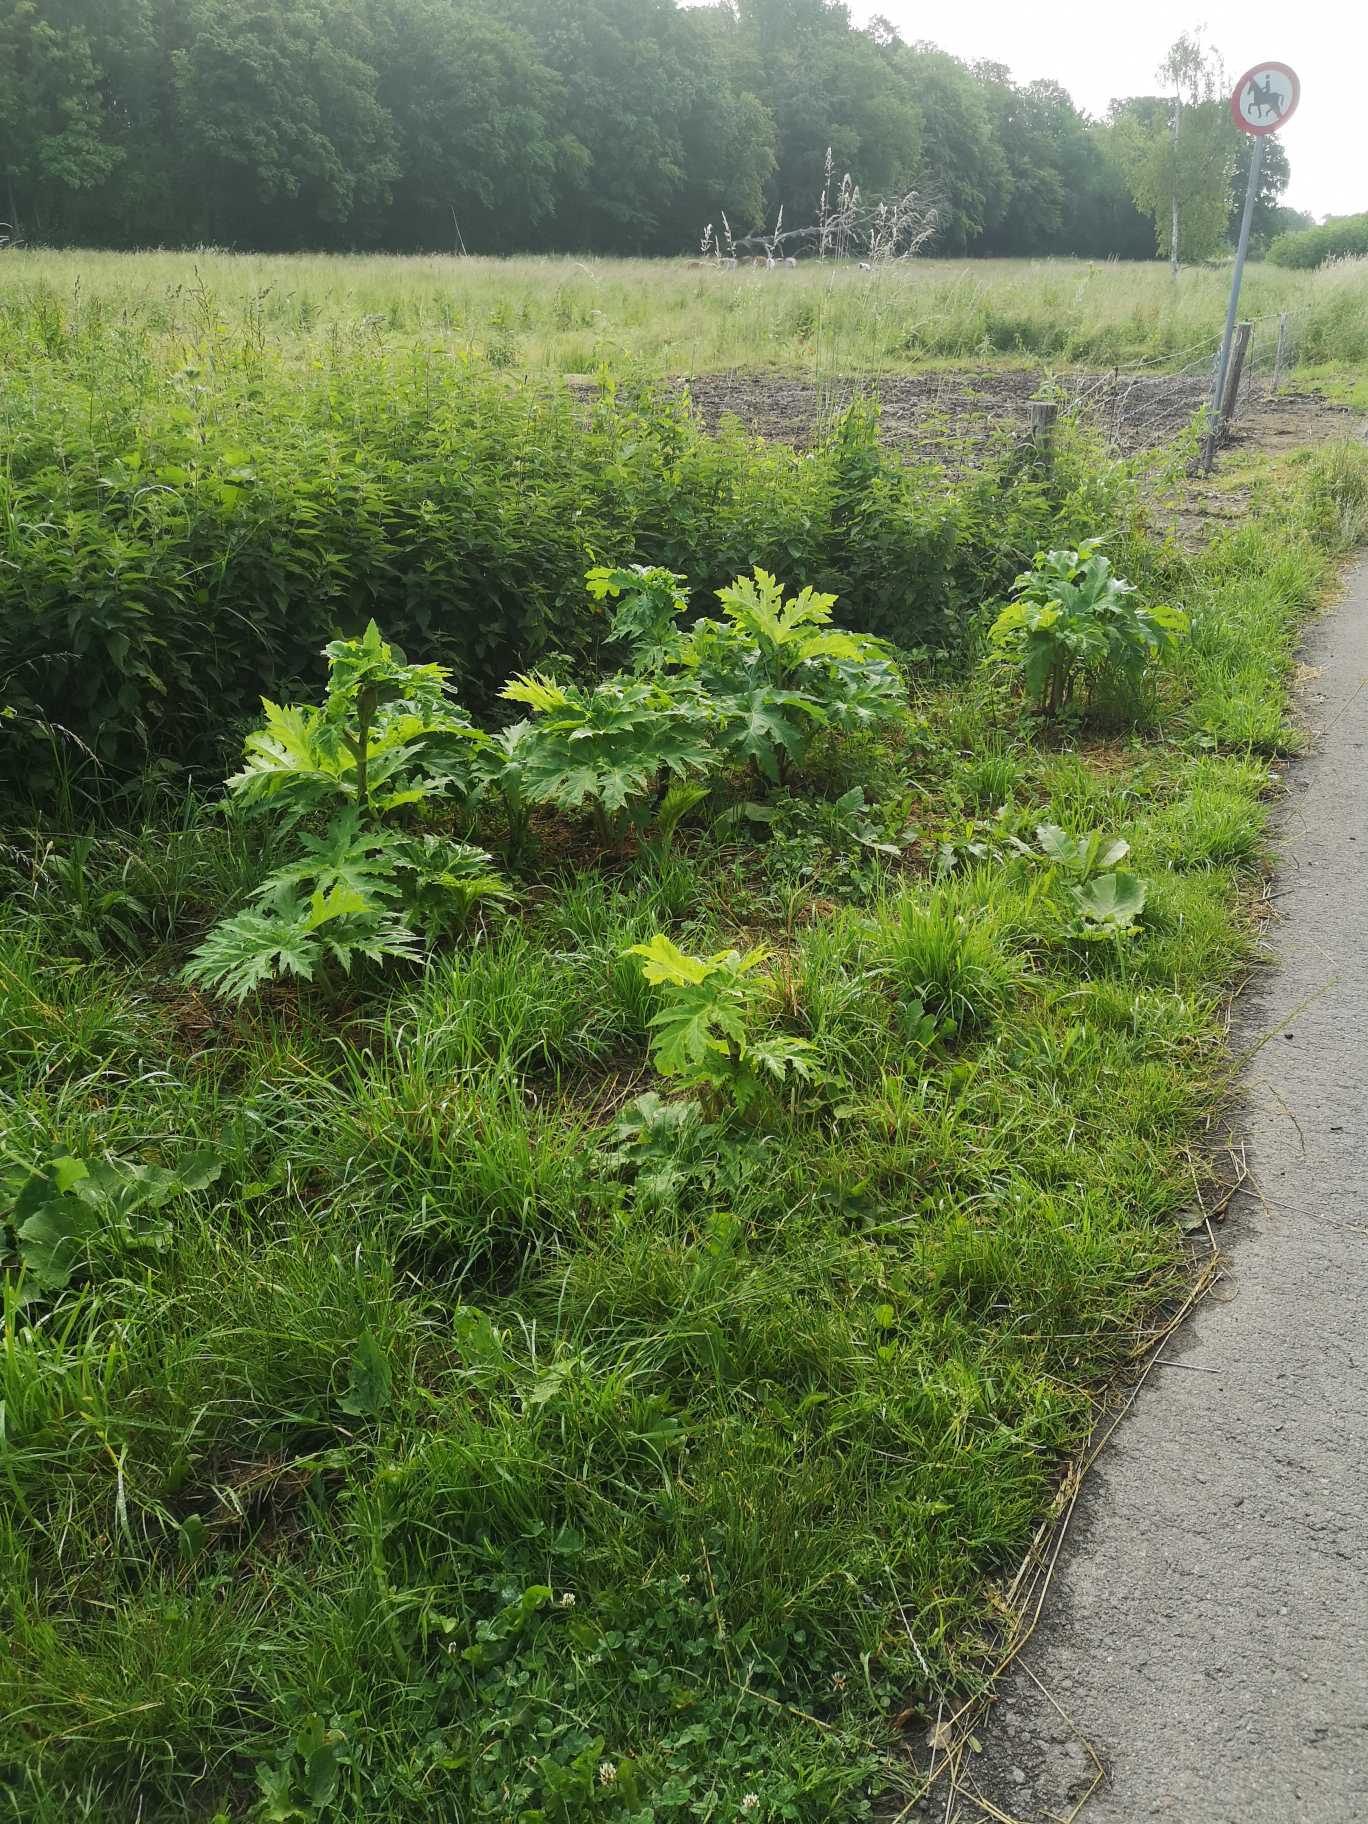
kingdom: Plantae
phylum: Tracheophyta
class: Magnoliopsida
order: Apiales
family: Apiaceae
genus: Heracleum
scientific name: Heracleum mantegazzianum
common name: Kæmpe-bjørneklo
